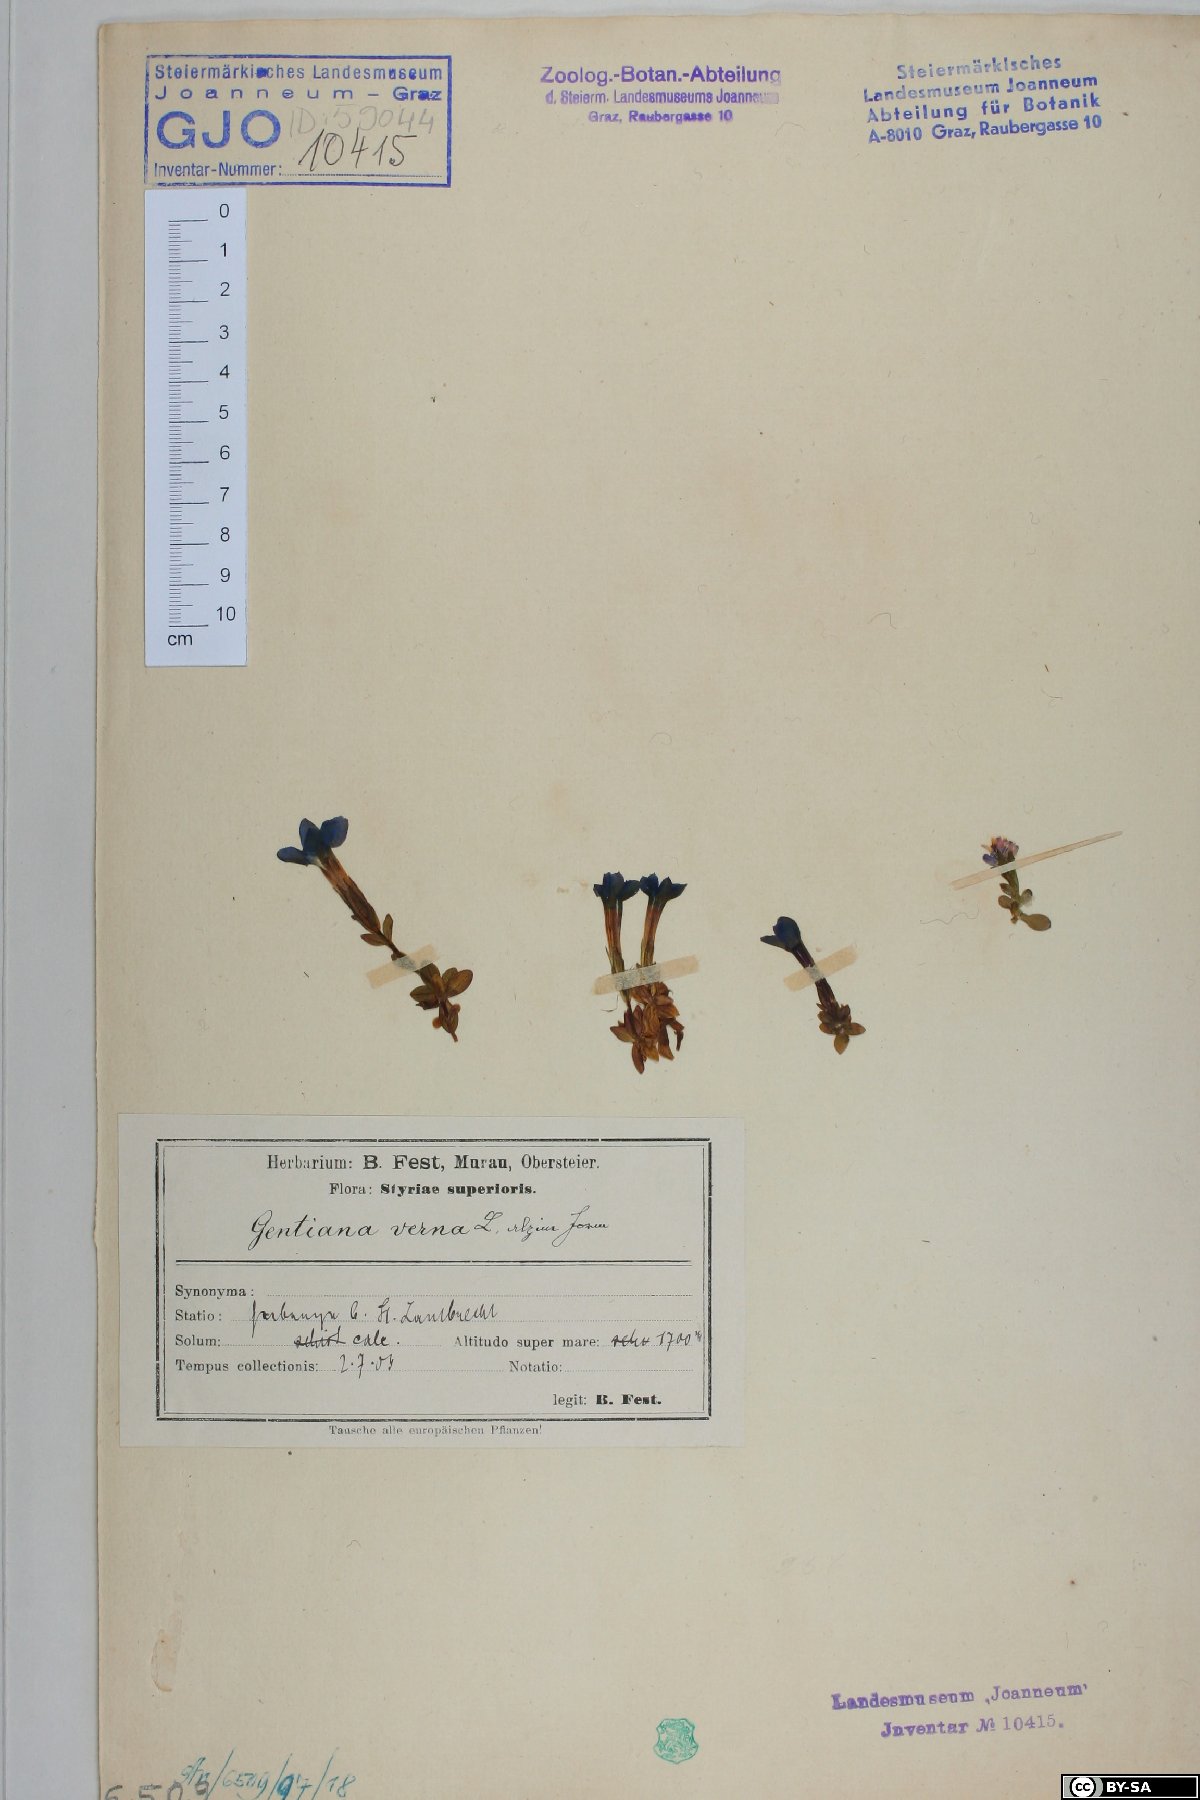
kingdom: Plantae
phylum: Tracheophyta
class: Magnoliopsida
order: Gentianales
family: Gentianaceae
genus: Gentiana
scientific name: Gentiana verna
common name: Spring gentian
